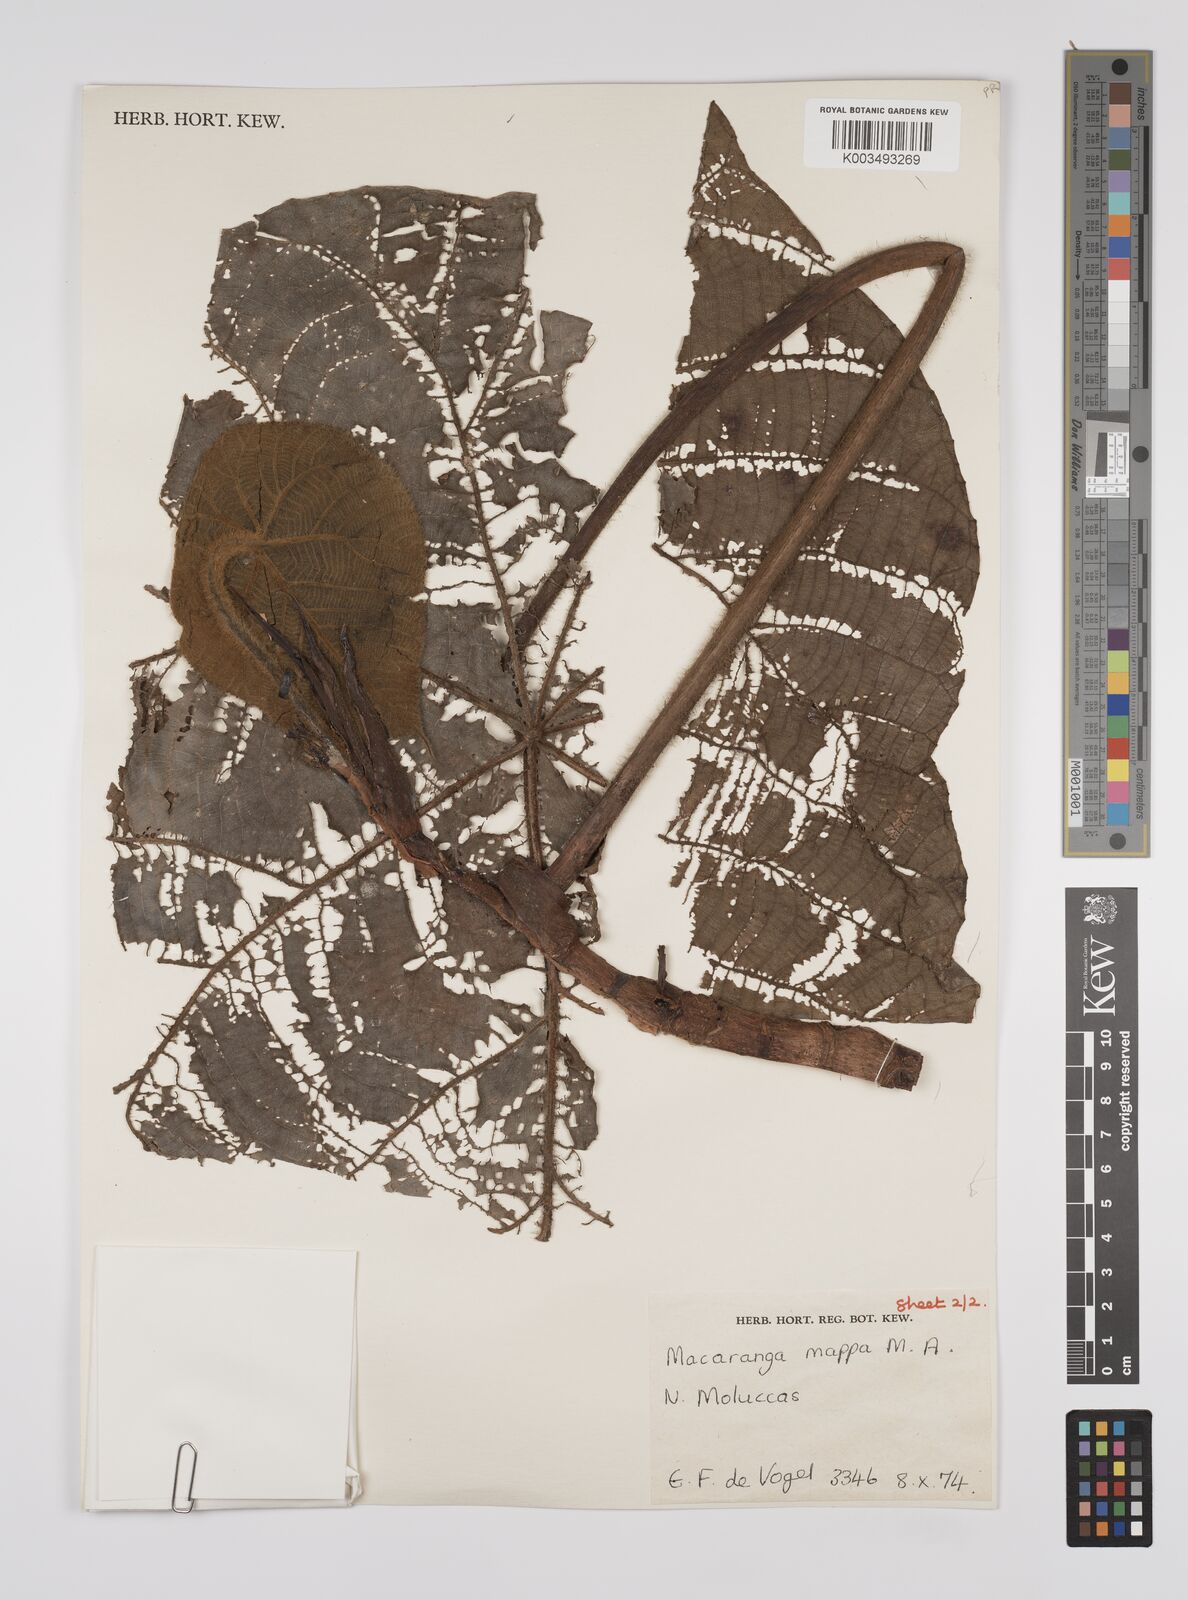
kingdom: Plantae
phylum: Tracheophyta
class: Magnoliopsida
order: Malpighiales
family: Euphorbiaceae
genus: Macaranga
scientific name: Macaranga mappa
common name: Pengua
